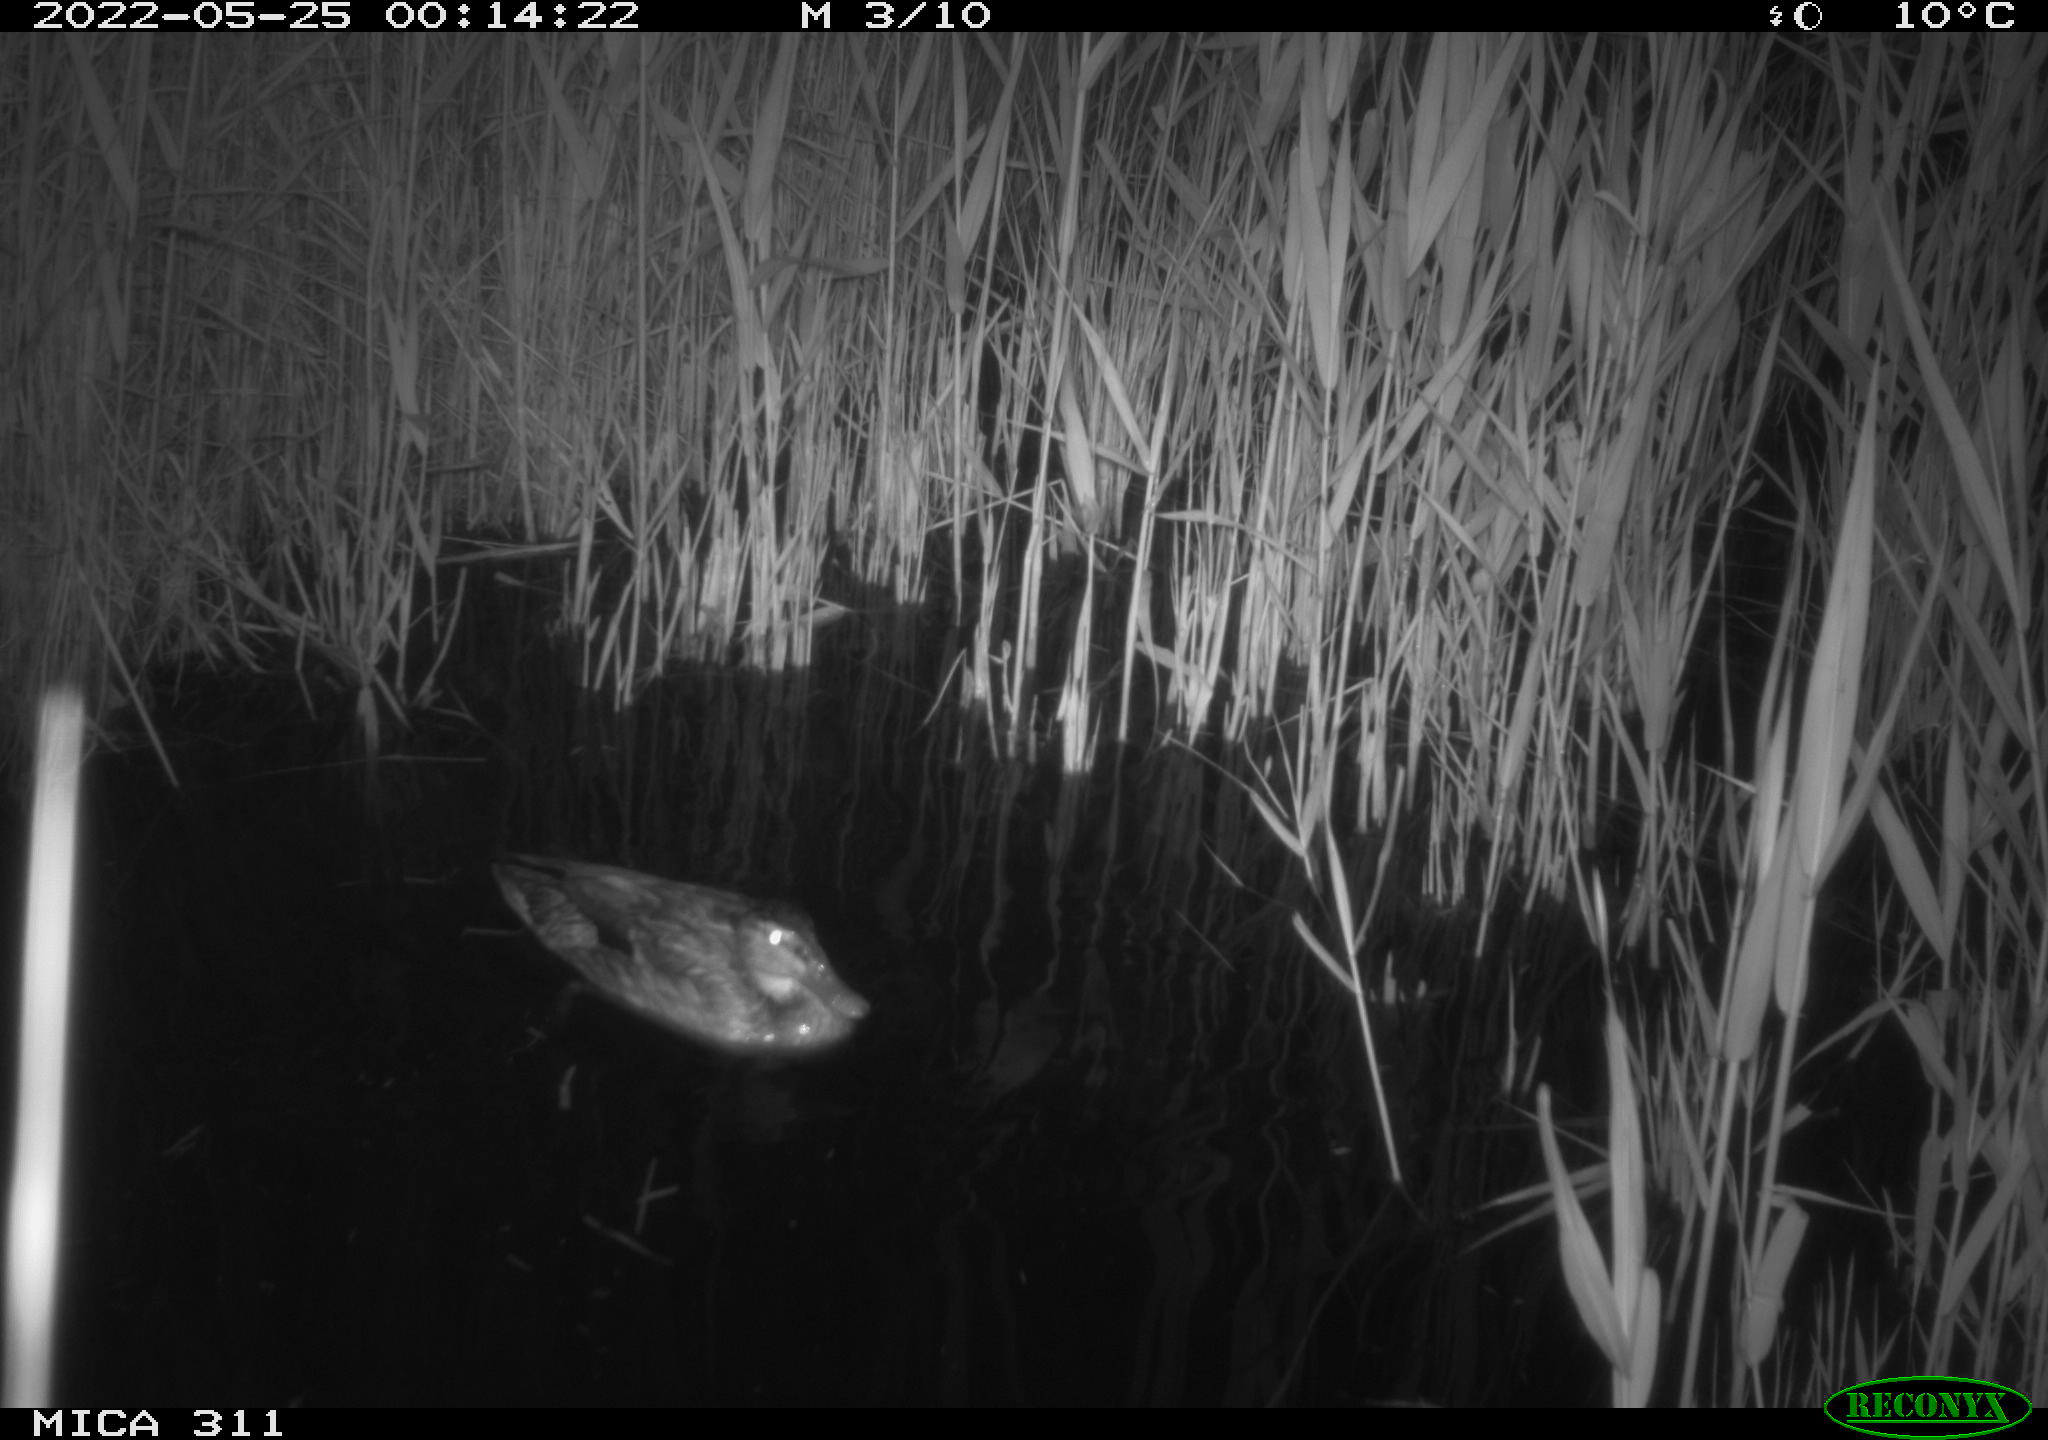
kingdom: Animalia
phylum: Chordata
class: Aves
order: Anseriformes
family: Anatidae
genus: Anas
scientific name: Anas platyrhynchos
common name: Mallard
